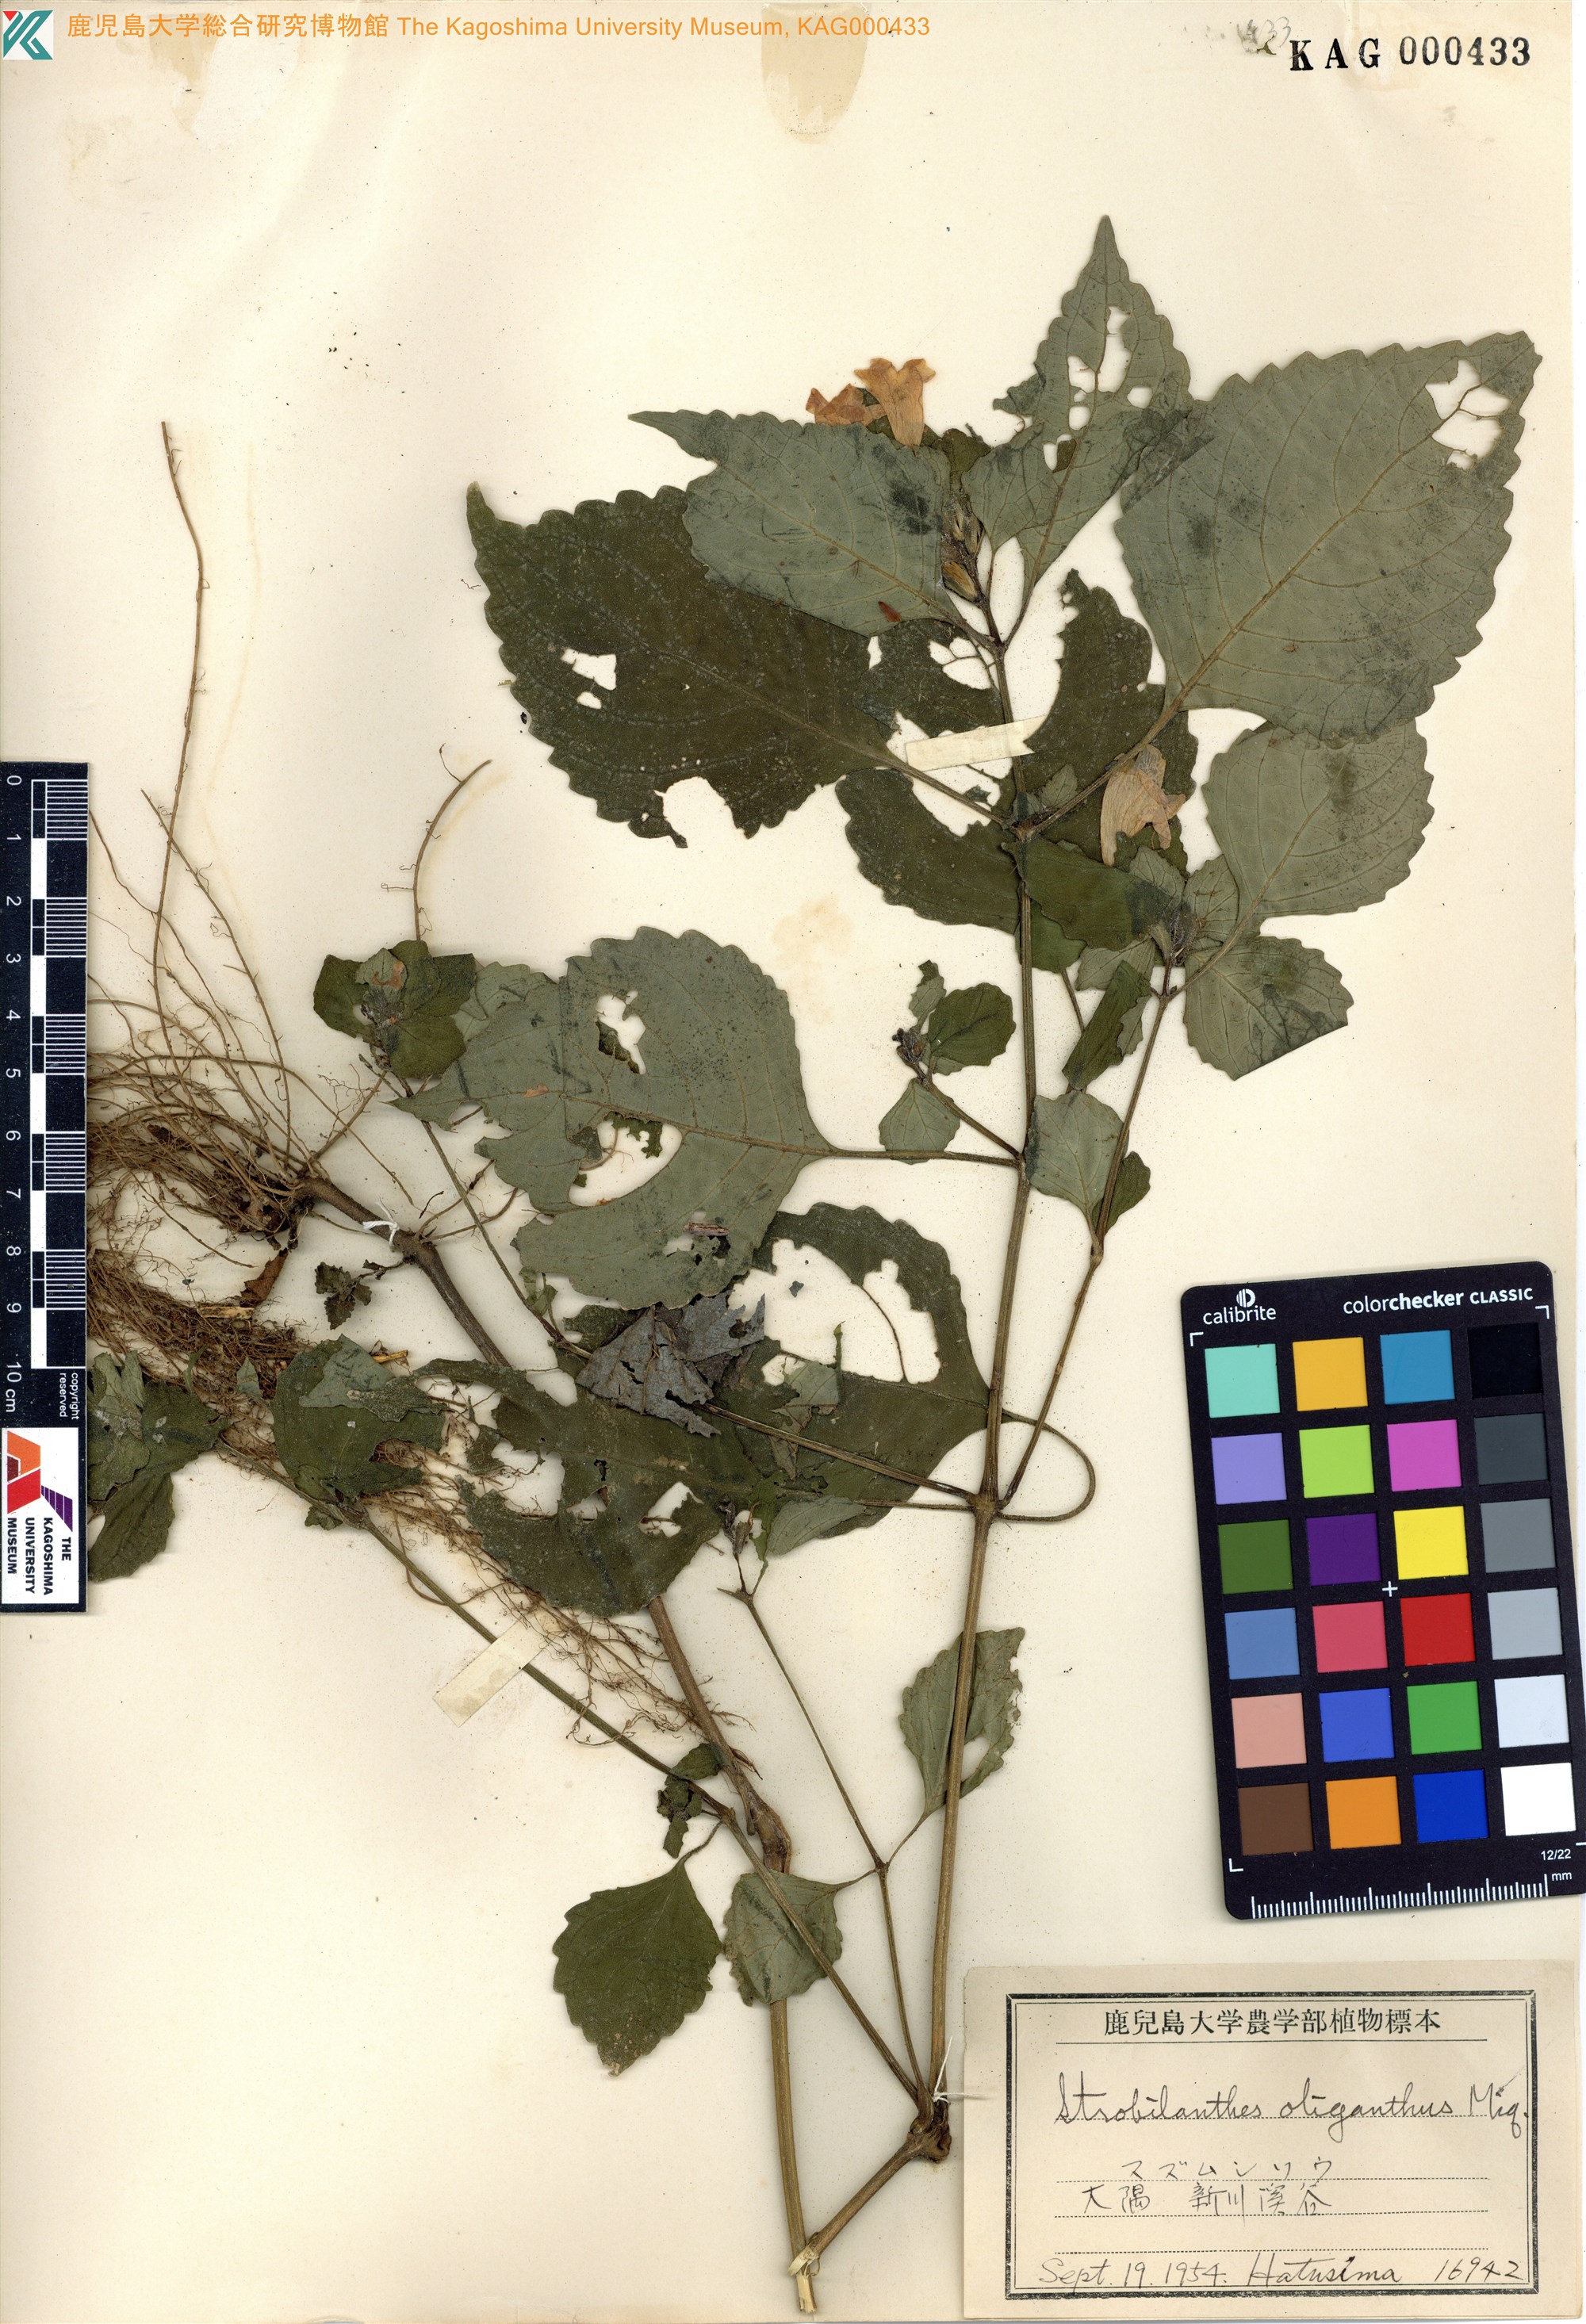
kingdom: Plantae
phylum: Tracheophyta
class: Magnoliopsida
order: Lamiales
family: Acanthaceae
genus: Strobilanthes
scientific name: Strobilanthes oligantha
